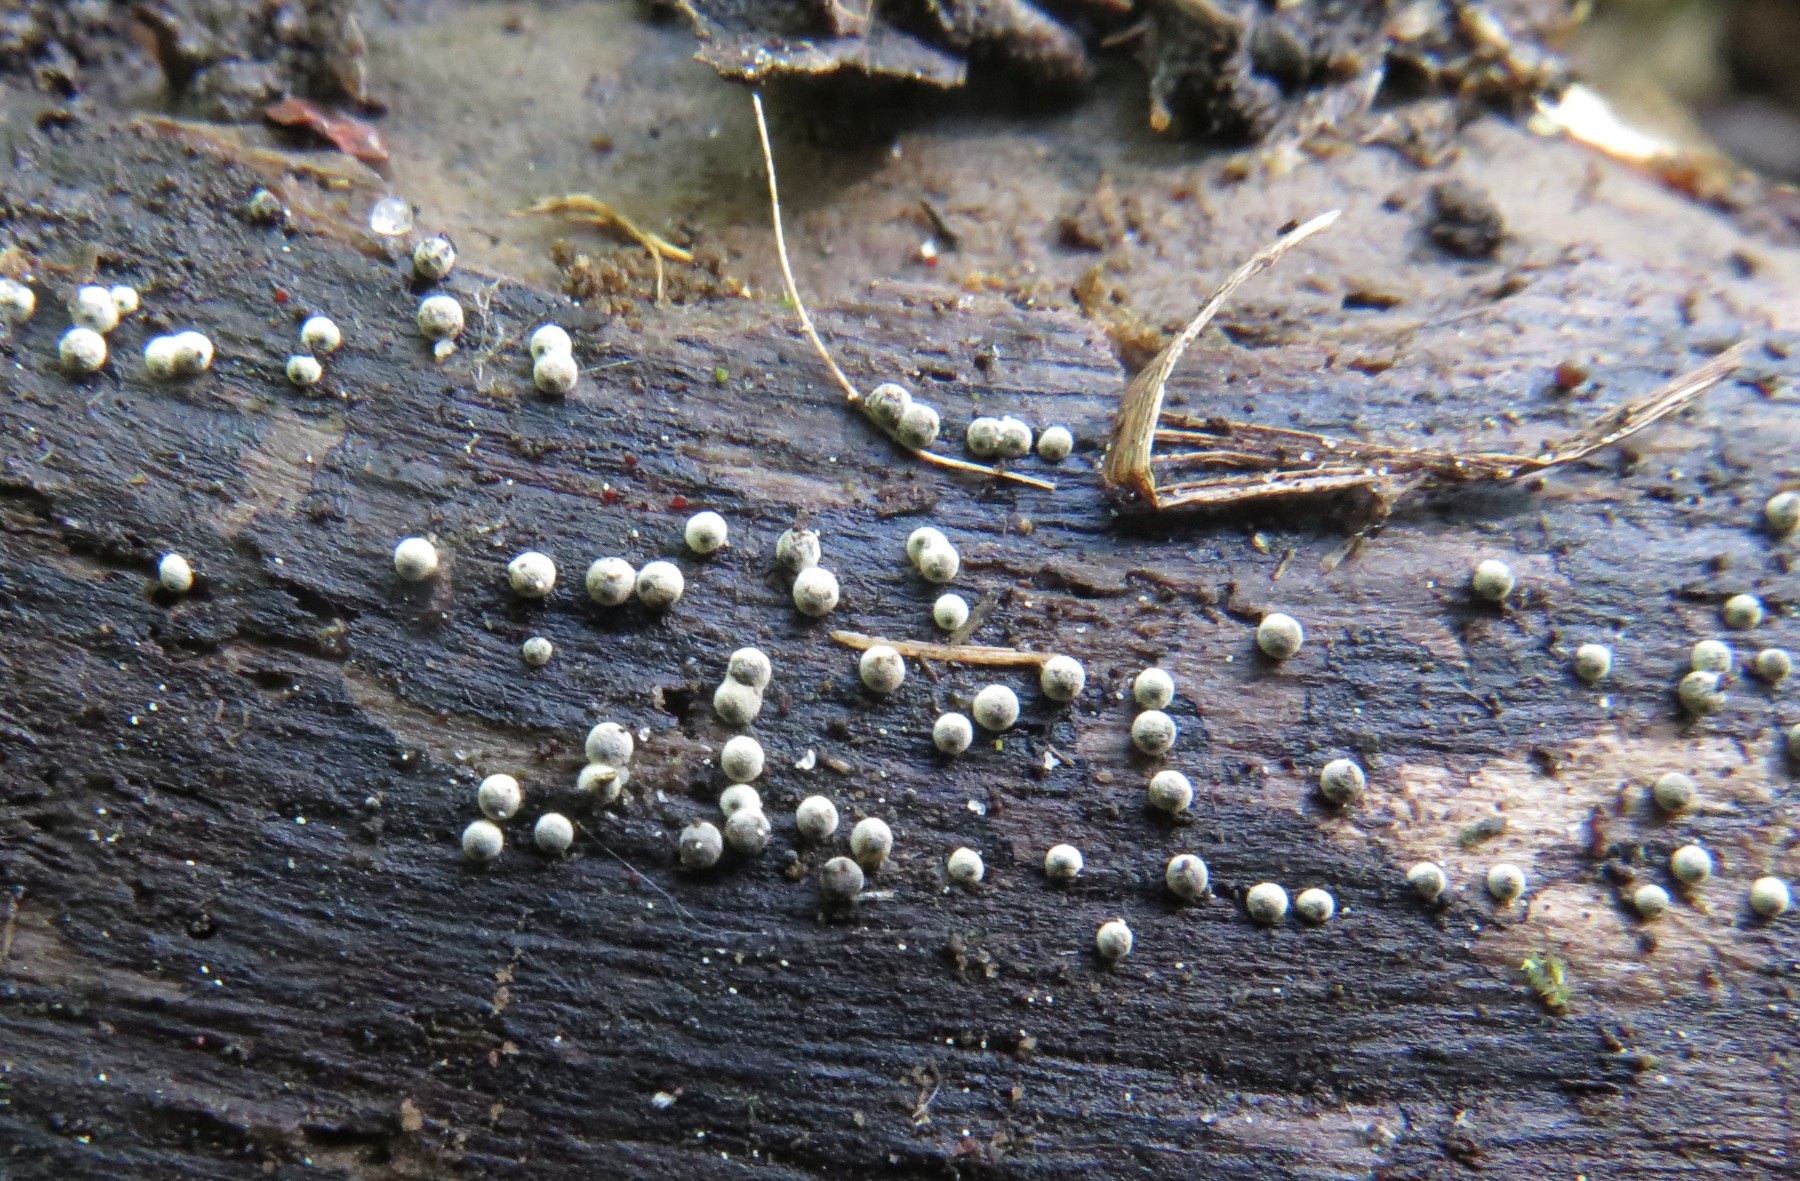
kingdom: Fungi
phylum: Ascomycota
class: Sordariomycetes
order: Sordariales
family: Lasiosphaeriaceae
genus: Lasiosphaeria
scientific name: Lasiosphaeria ovina
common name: fåre-kernesvamp
